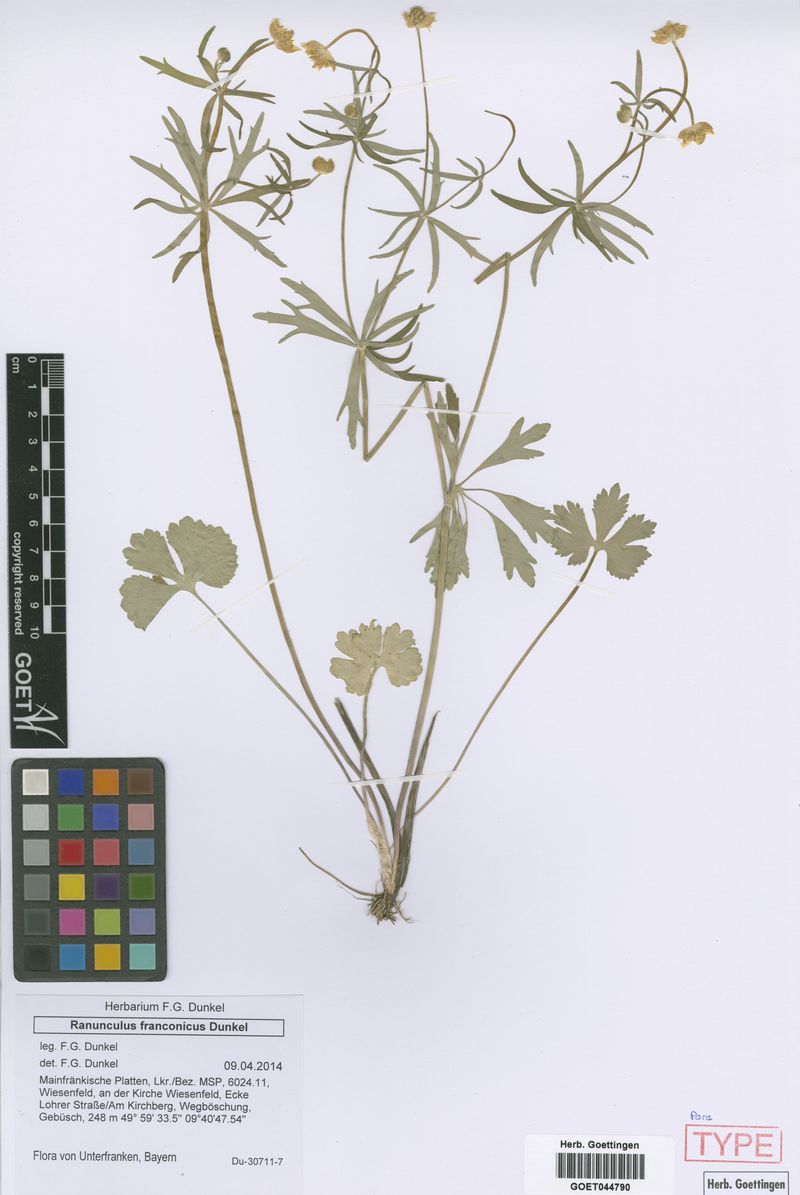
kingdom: Plantae
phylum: Tracheophyta
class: Magnoliopsida
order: Ranunculales
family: Ranunculaceae
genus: Ranunculus
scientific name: Ranunculus franconicus
